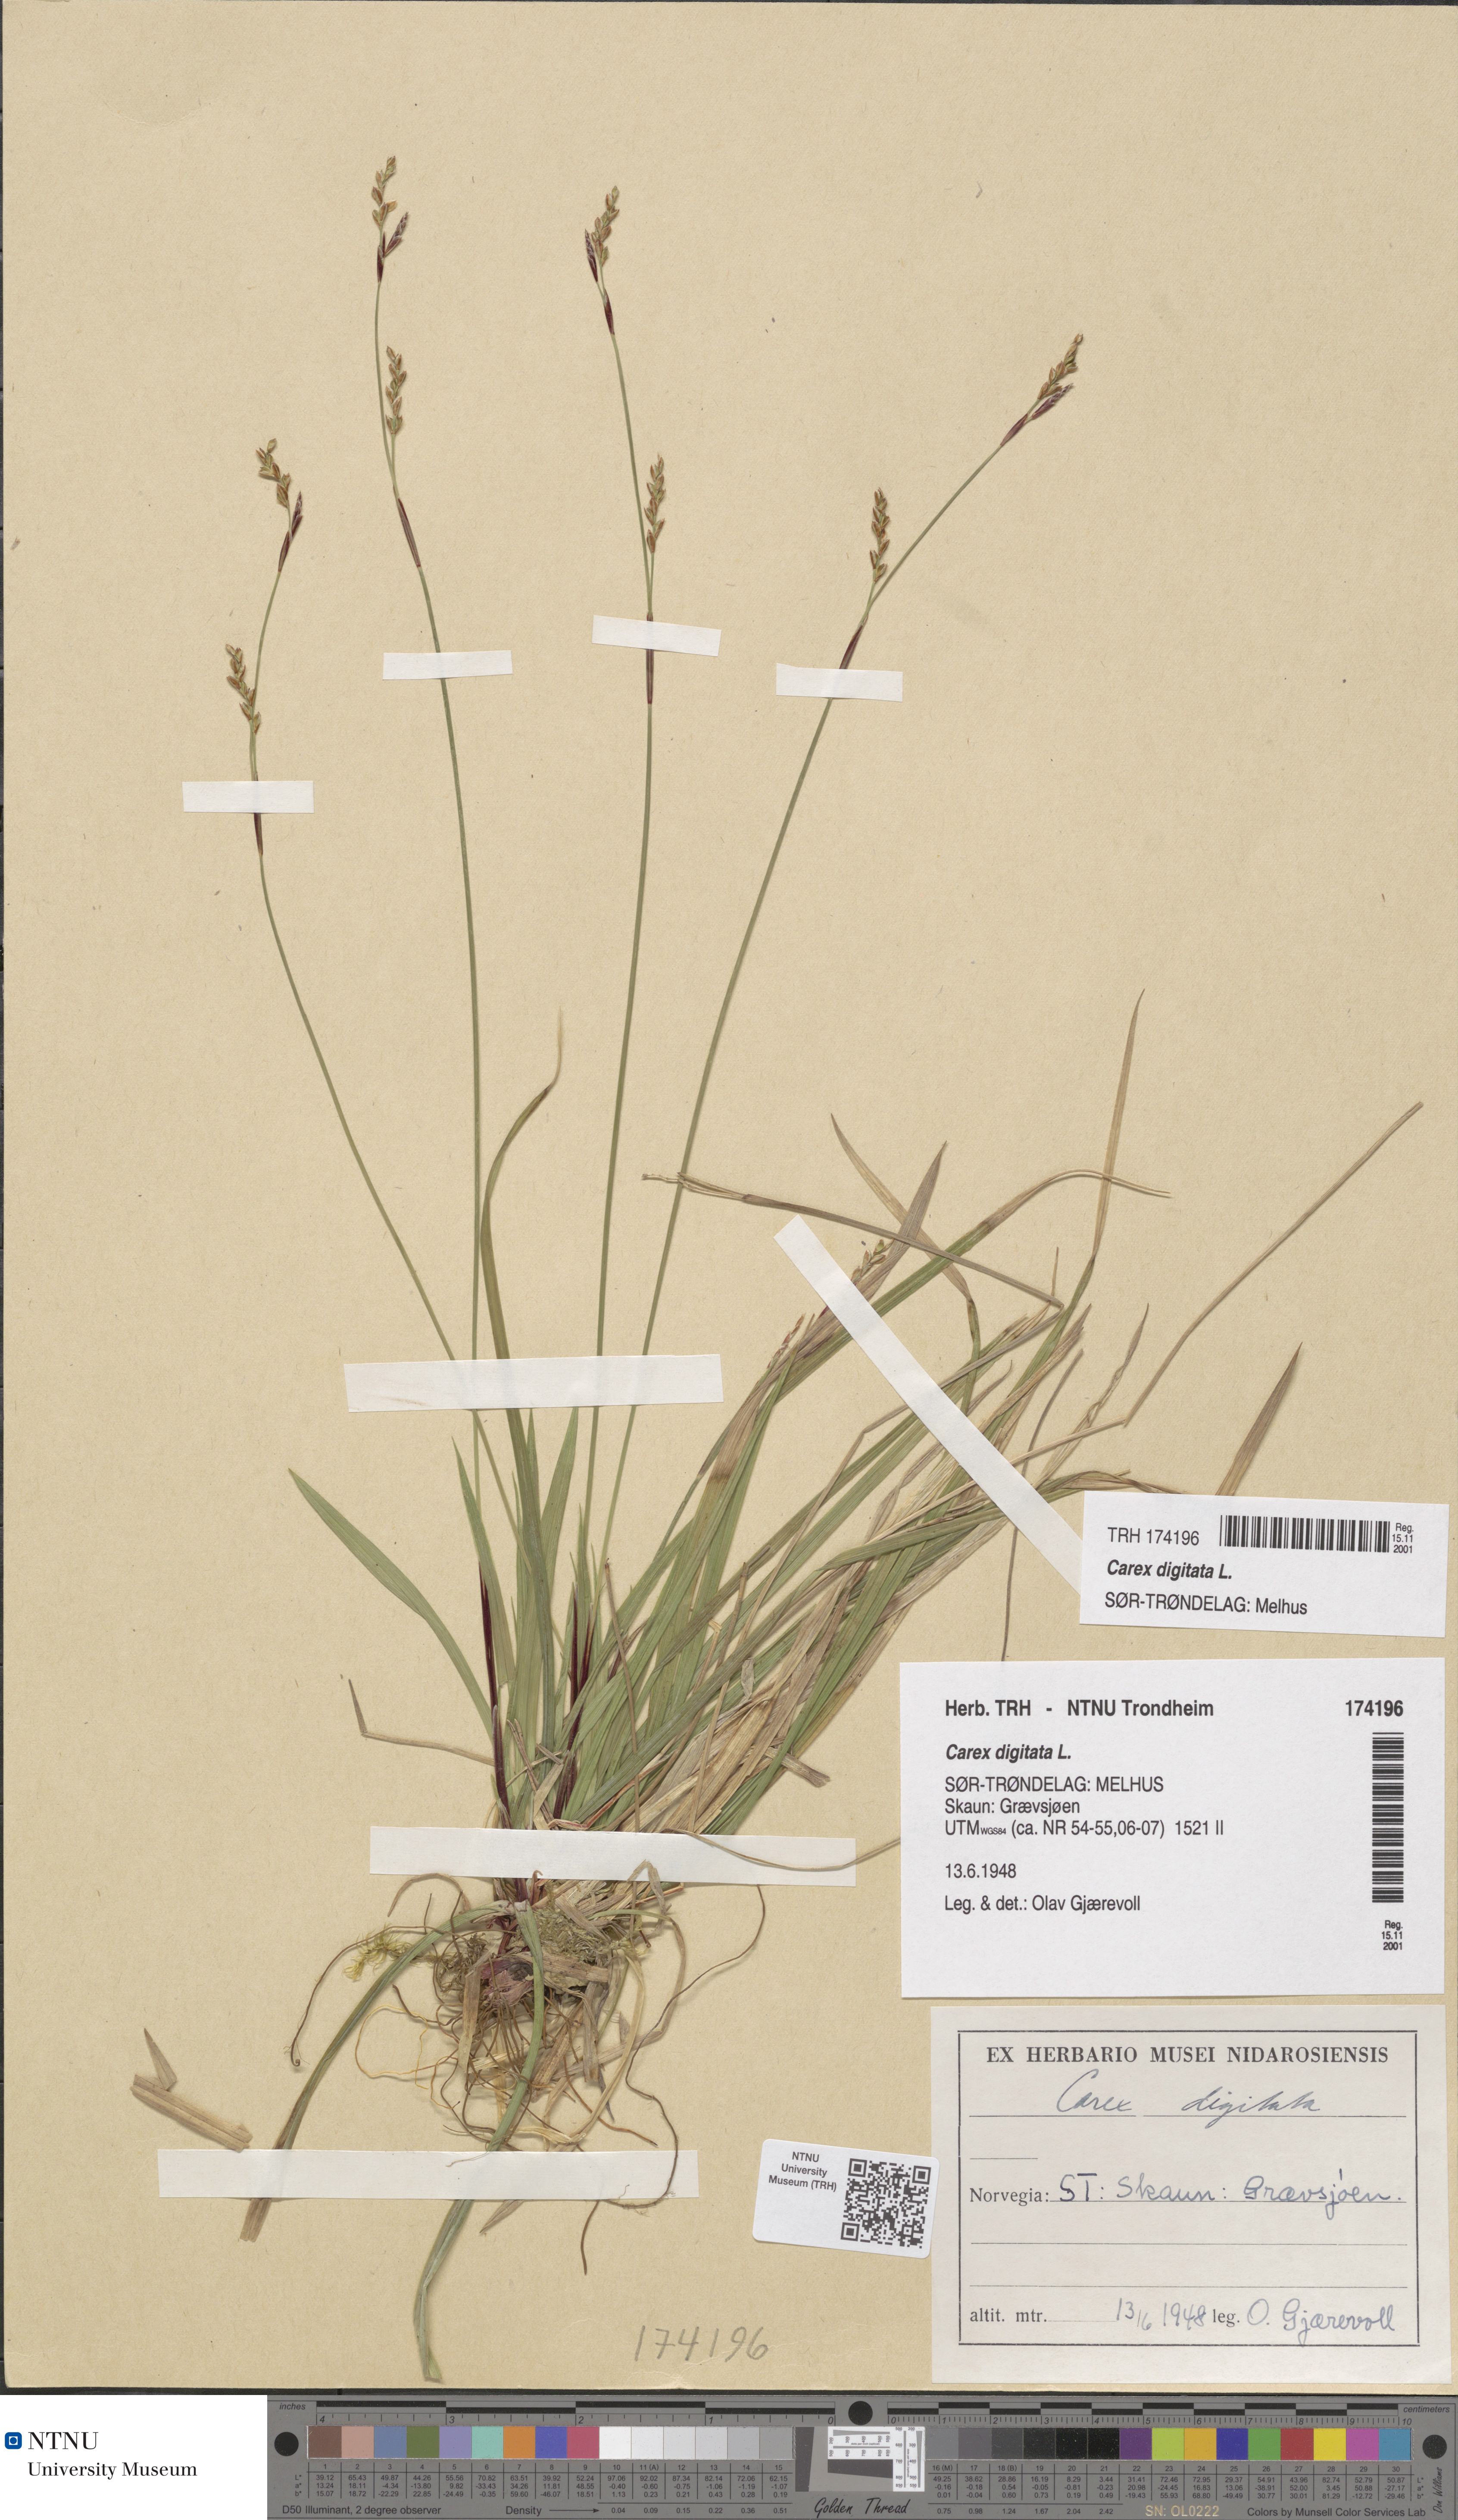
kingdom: Plantae
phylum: Tracheophyta
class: Liliopsida
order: Poales
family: Cyperaceae
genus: Carex
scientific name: Carex digitata
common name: Fingered sedge
